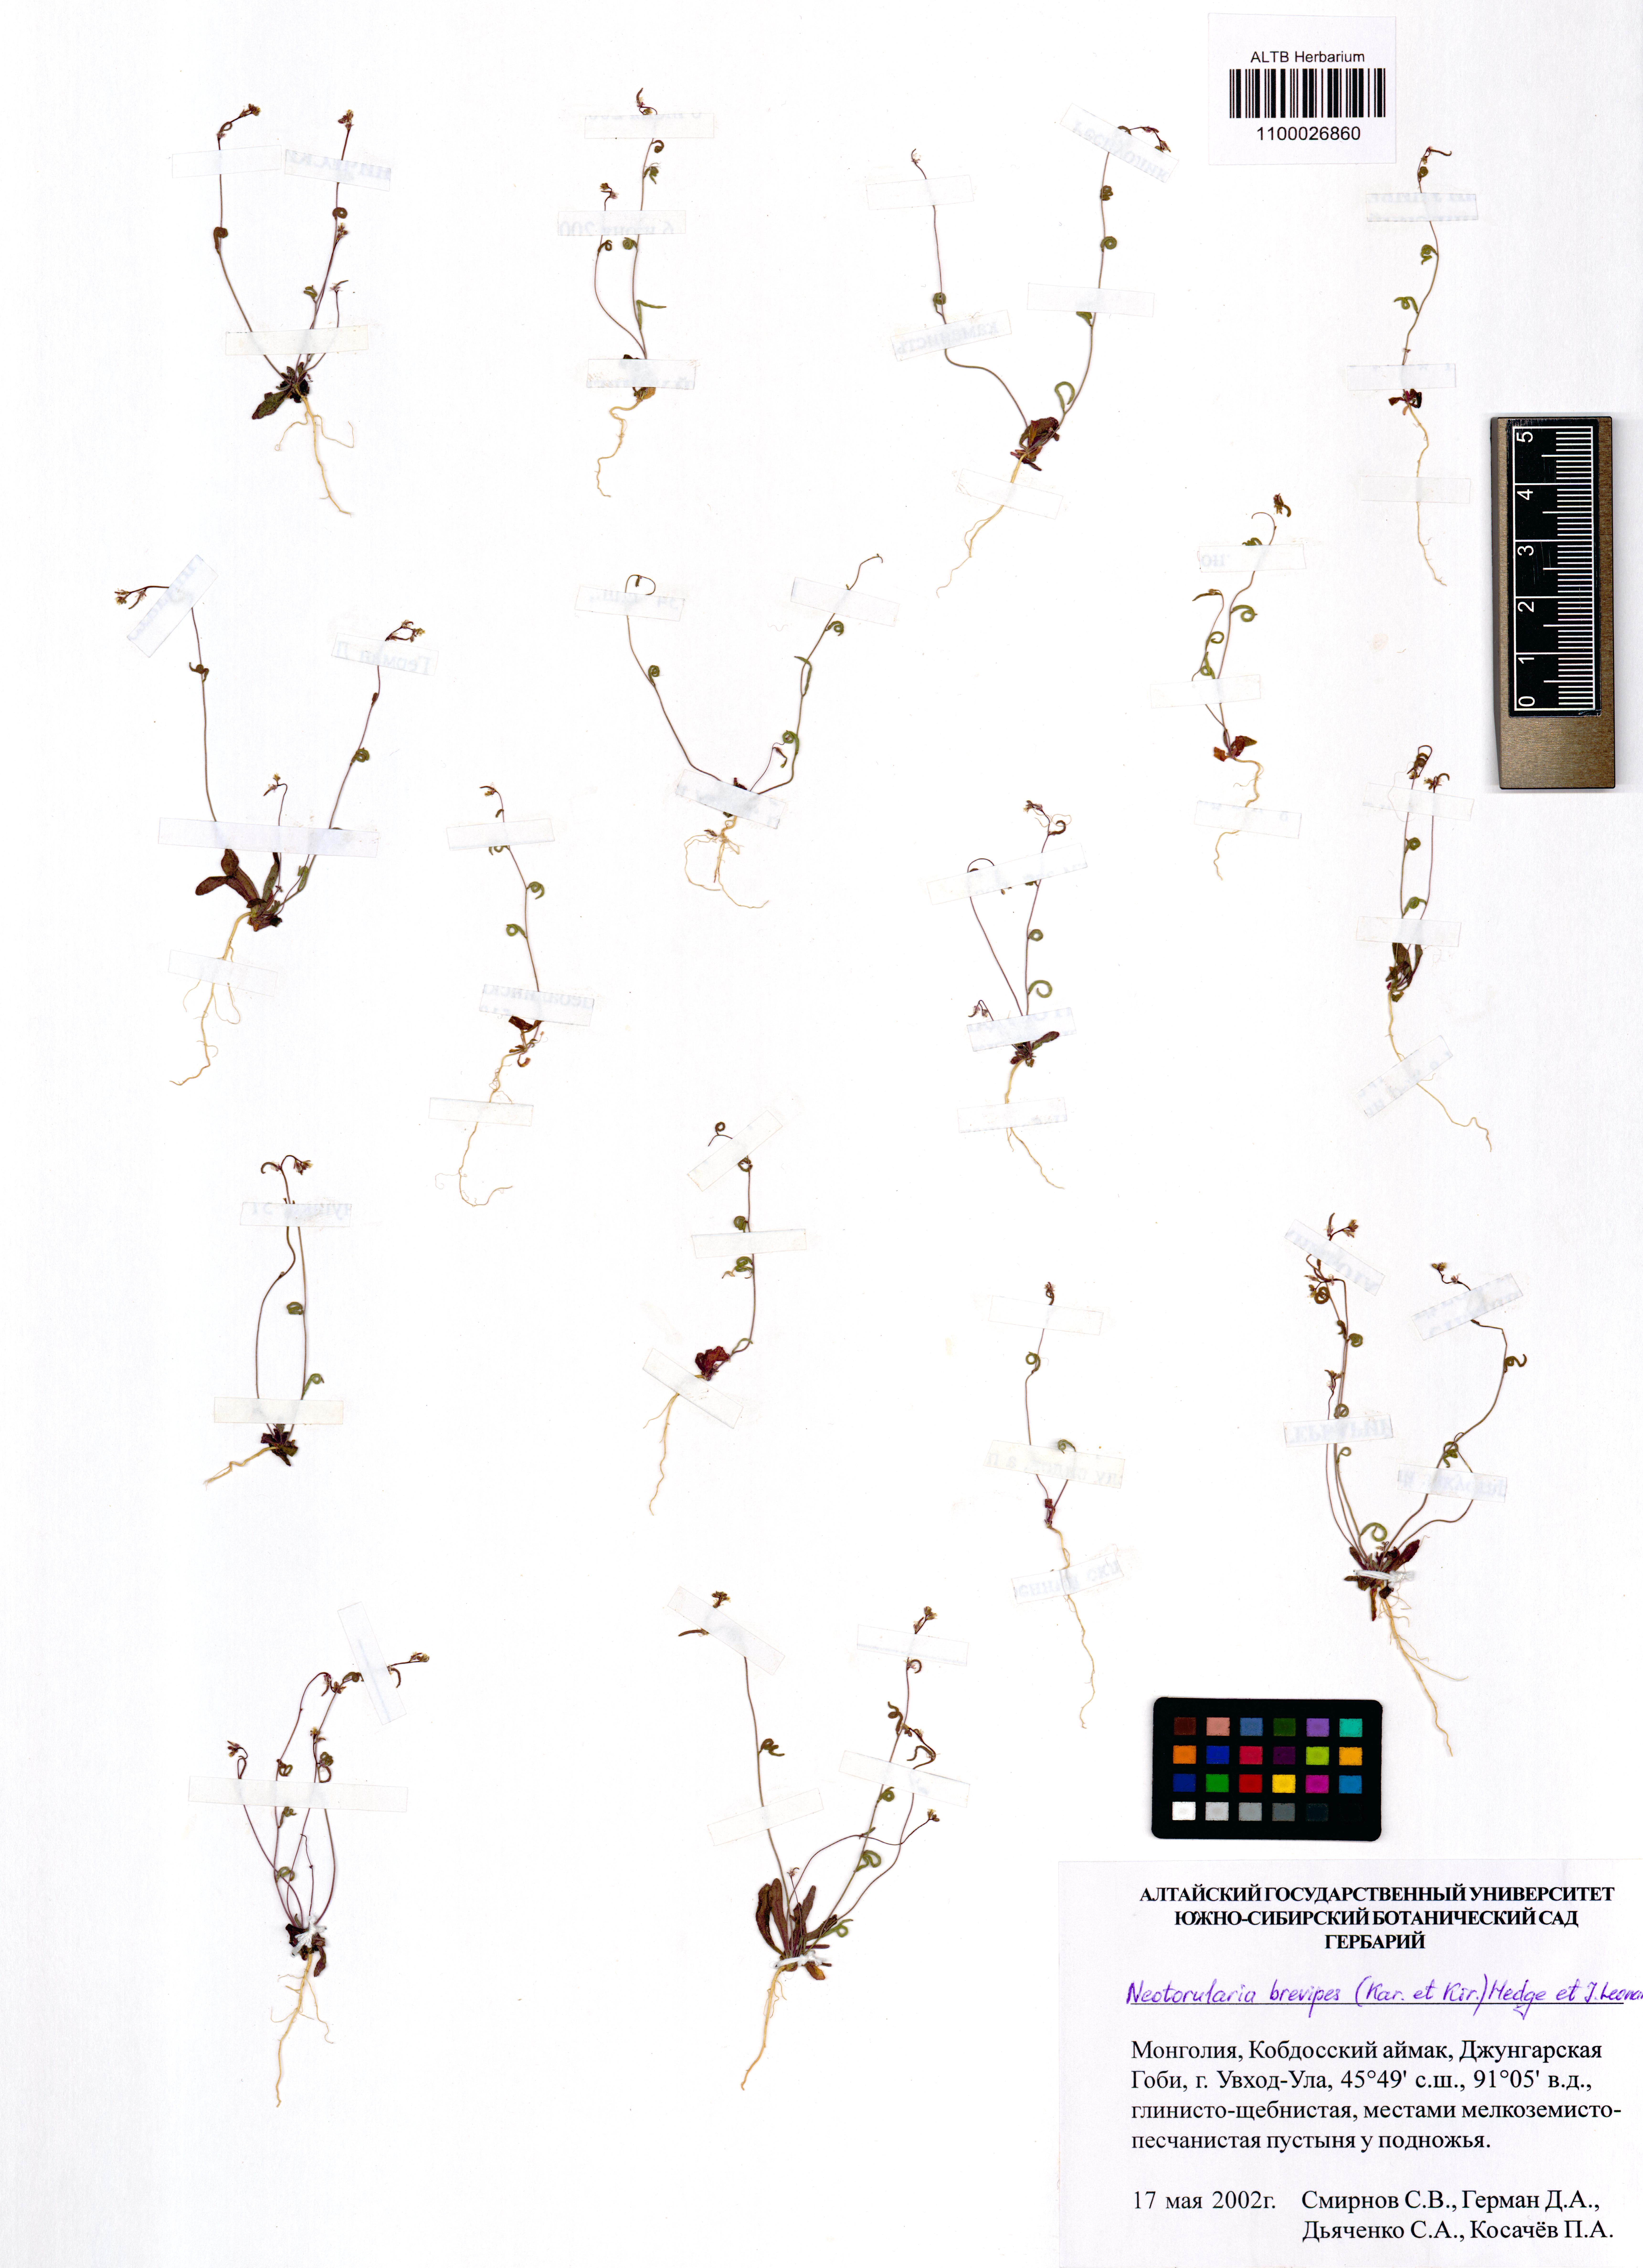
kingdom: Plantae
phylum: Tracheophyta
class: Magnoliopsida
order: Brassicales
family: Brassicaceae
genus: Neotorularia
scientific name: Neotorularia brevipes
